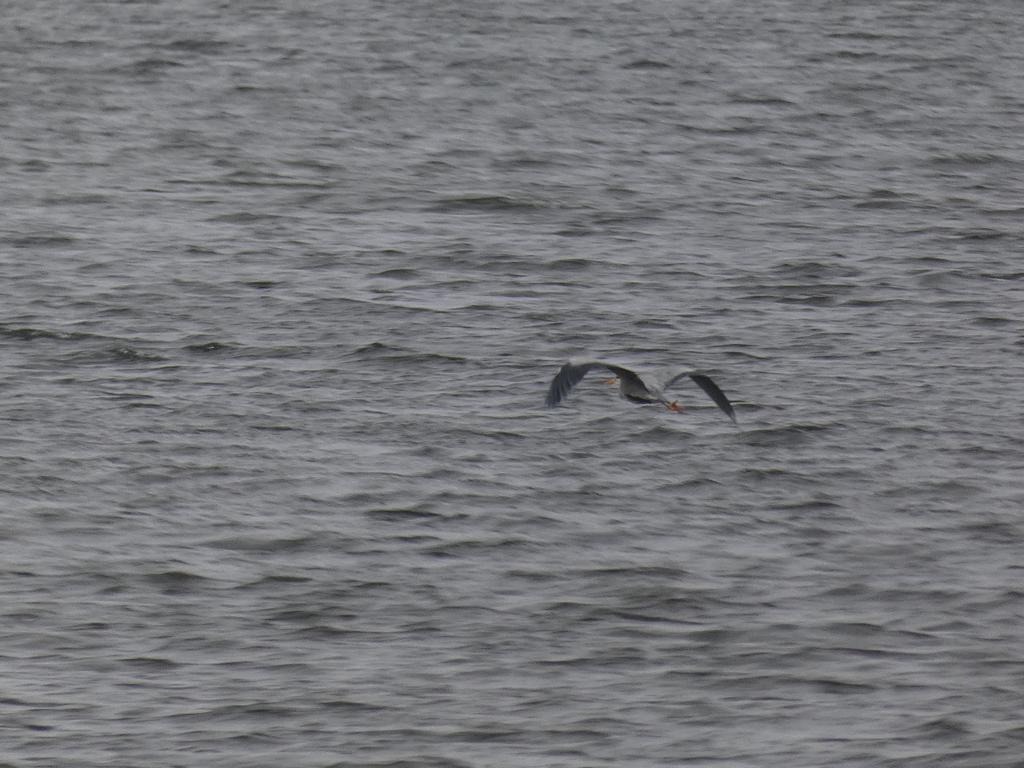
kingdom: Animalia
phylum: Chordata
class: Aves
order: Pelecaniformes
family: Ardeidae
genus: Ardea
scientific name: Ardea cinerea
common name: Fiskehejre
